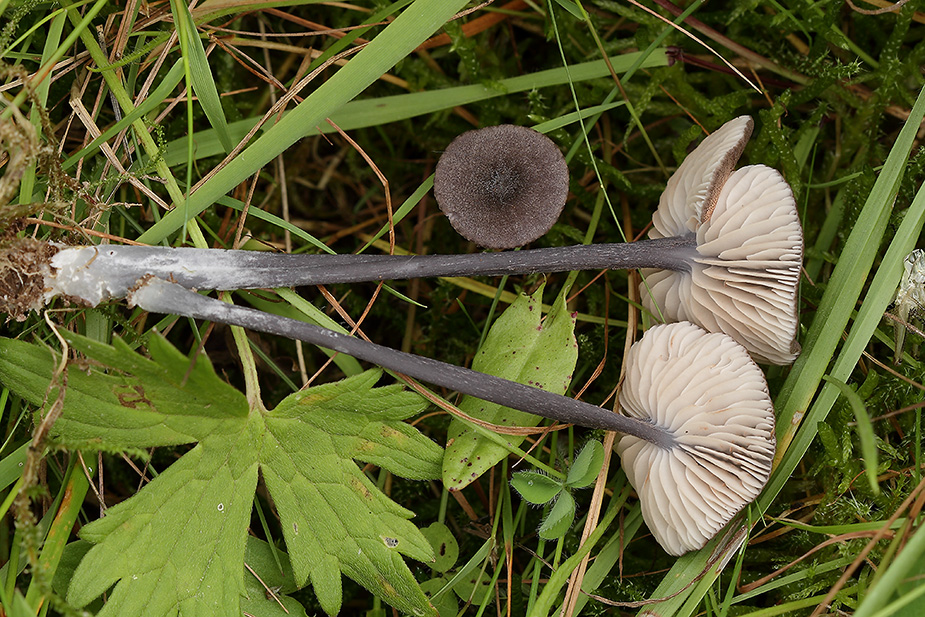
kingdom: Fungi
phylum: Basidiomycota
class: Agaricomycetes
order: Agaricales
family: Entolomataceae
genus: Entoloma
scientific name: Entoloma atrocoeruleum
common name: sortblå rødblad
